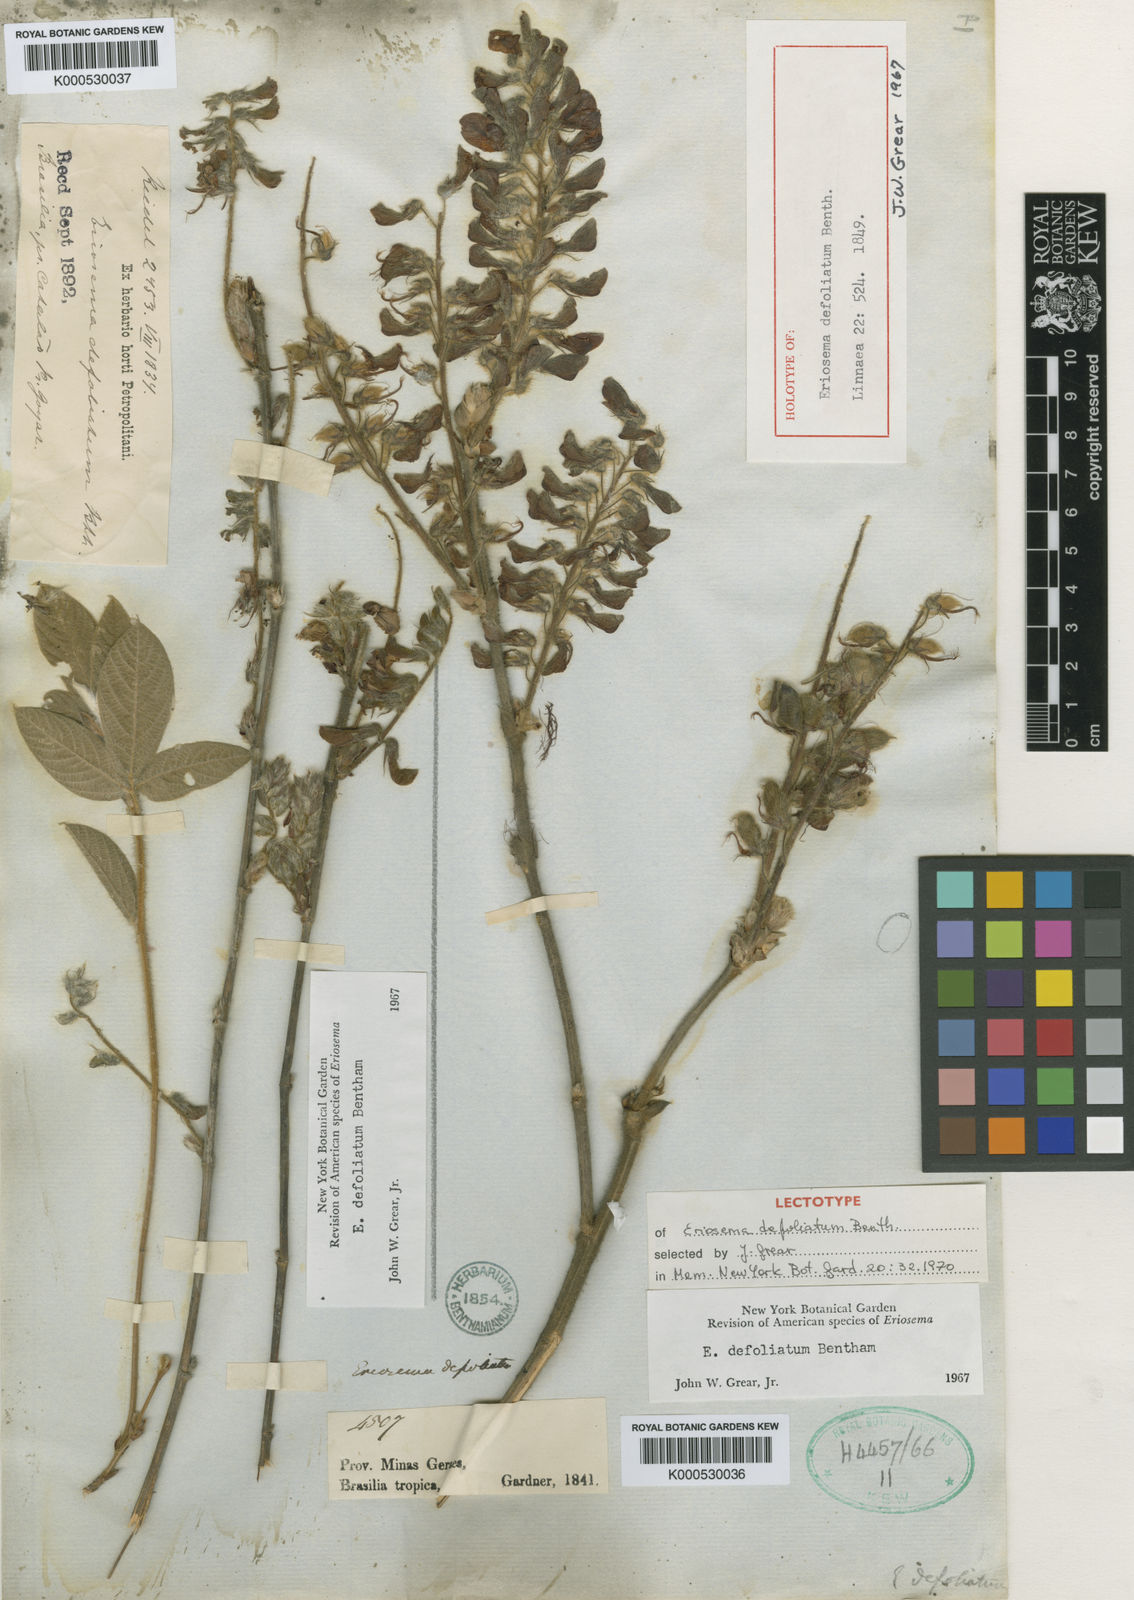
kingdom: Plantae
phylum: Tracheophyta
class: Magnoliopsida
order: Fabales
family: Fabaceae
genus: Eriosema
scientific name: Eriosema defoliatum
